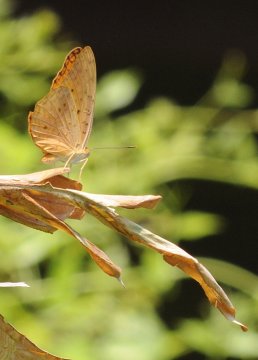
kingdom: Animalia
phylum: Arthropoda
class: Insecta
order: Lepidoptera
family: Nymphalidae
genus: Phalanta
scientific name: Phalanta phalantha
